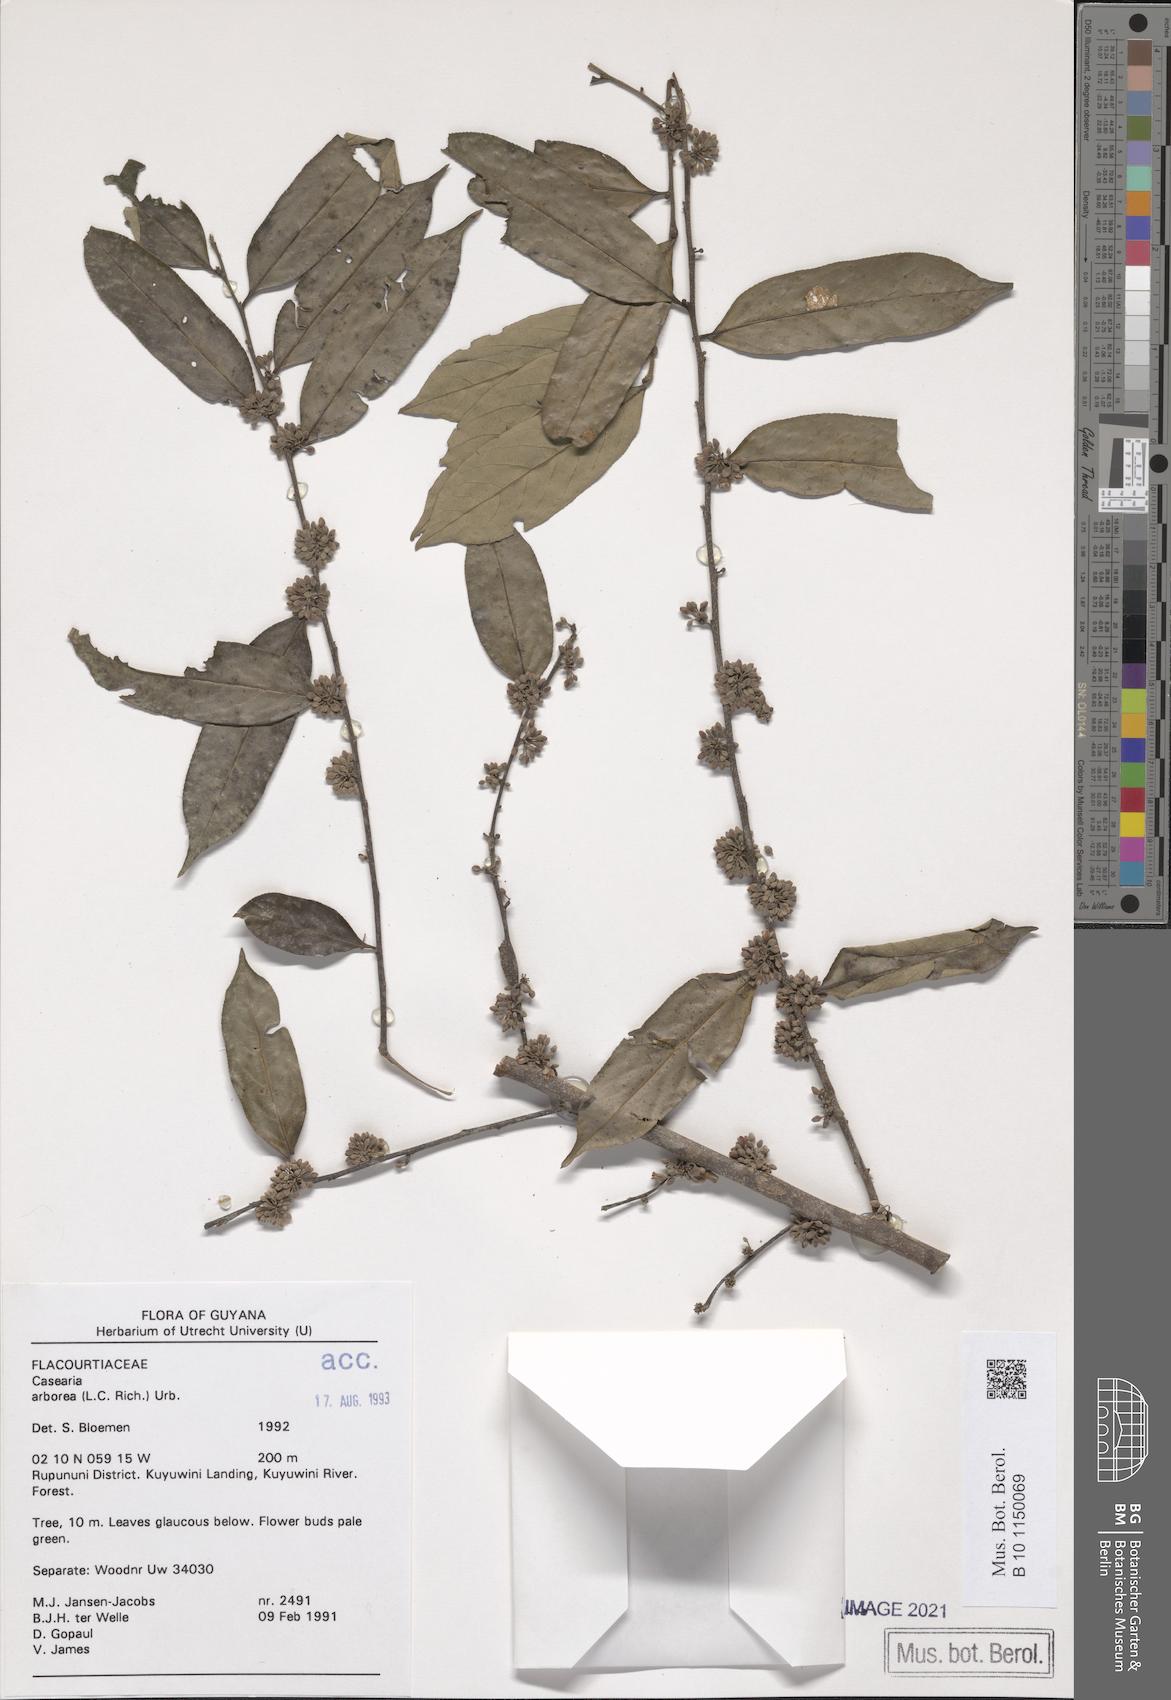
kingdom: Plantae
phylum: Tracheophyta
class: Magnoliopsida
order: Malpighiales
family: Salicaceae
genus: Casearia
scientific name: Casearia arborea
